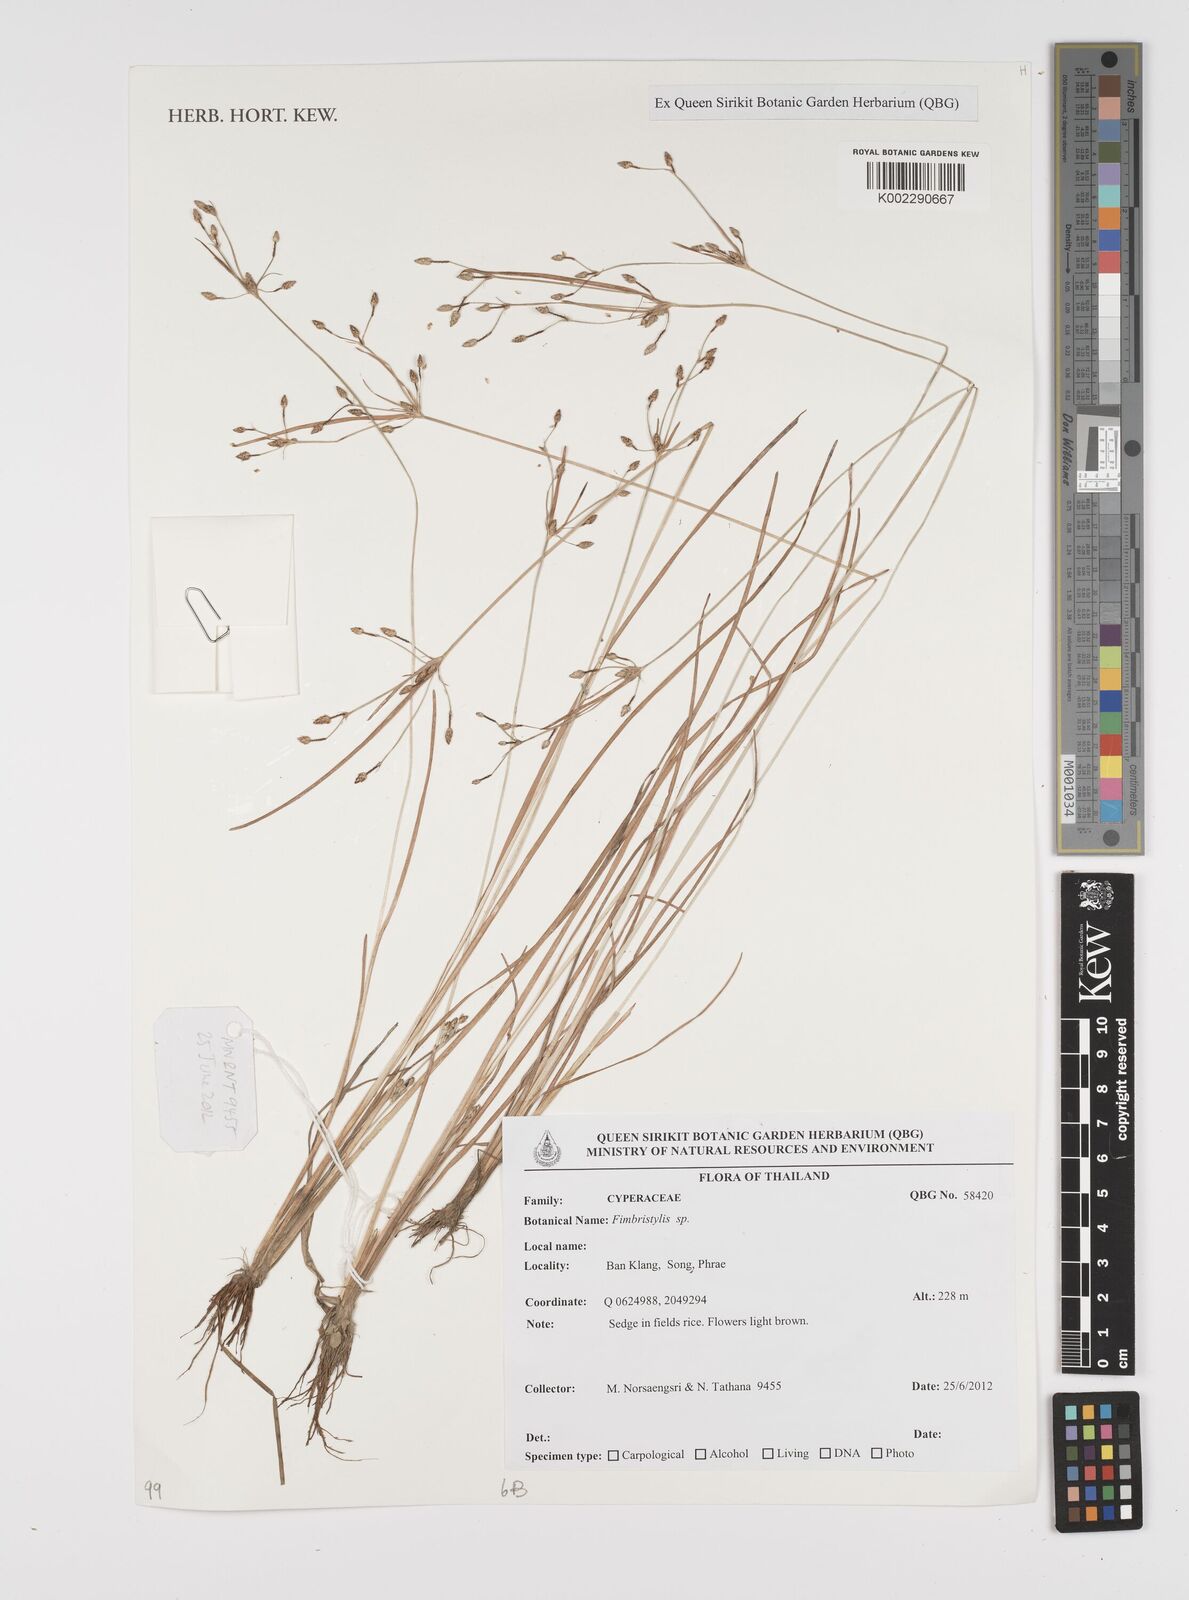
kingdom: Plantae
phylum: Tracheophyta
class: Liliopsida
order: Poales
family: Cyperaceae
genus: Fimbristylis
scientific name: Fimbristylis
